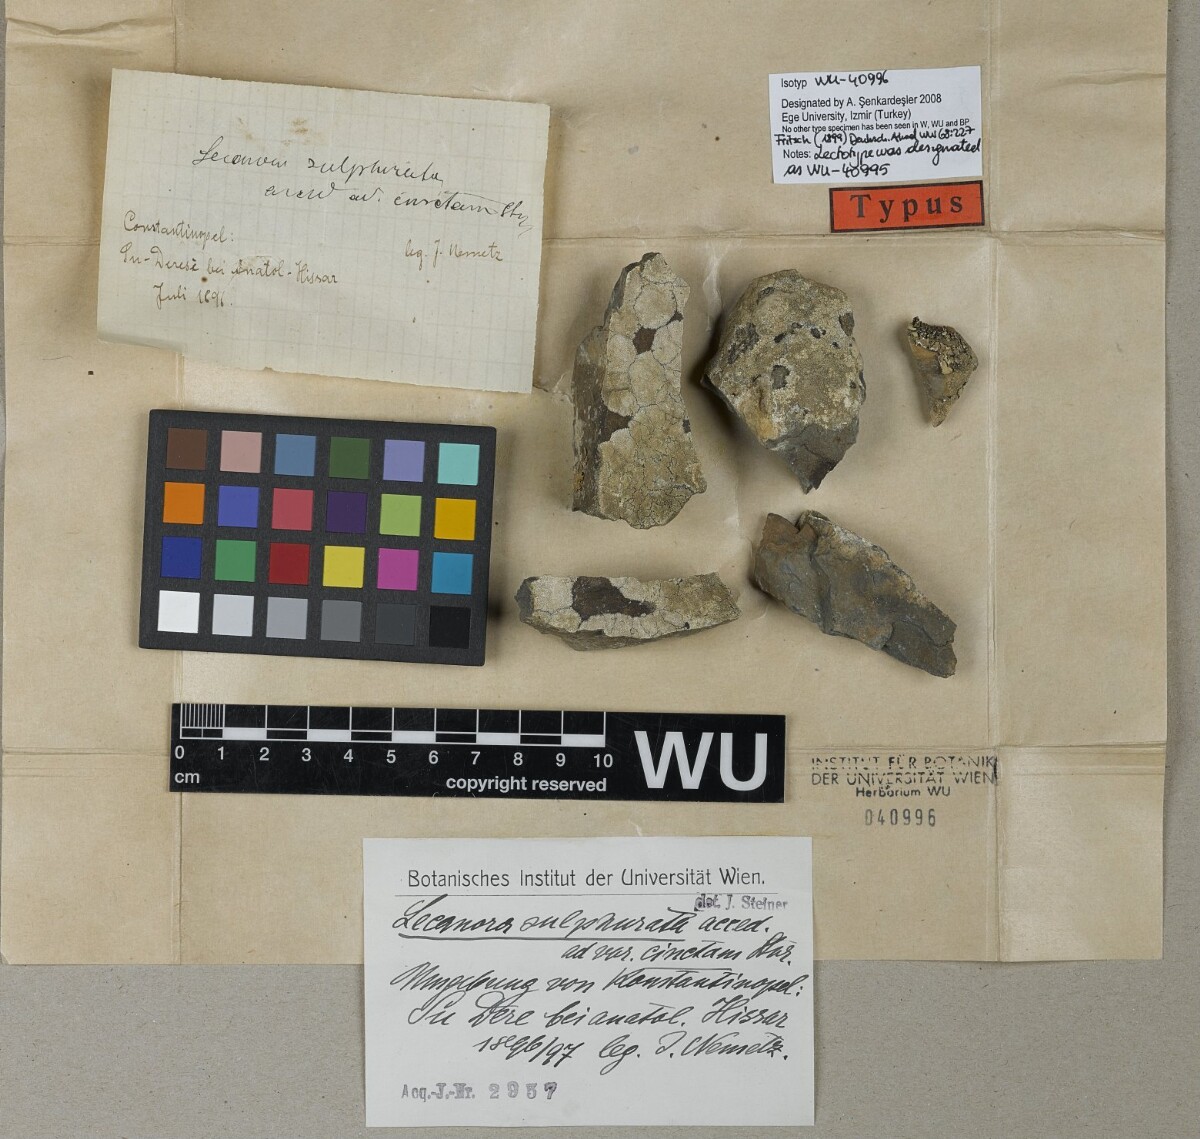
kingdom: Fungi
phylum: Ascomycota
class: Lecanoromycetes
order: Lecanorales
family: Lecanoraceae
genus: Lecanora
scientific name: Lecanora sulphurata
